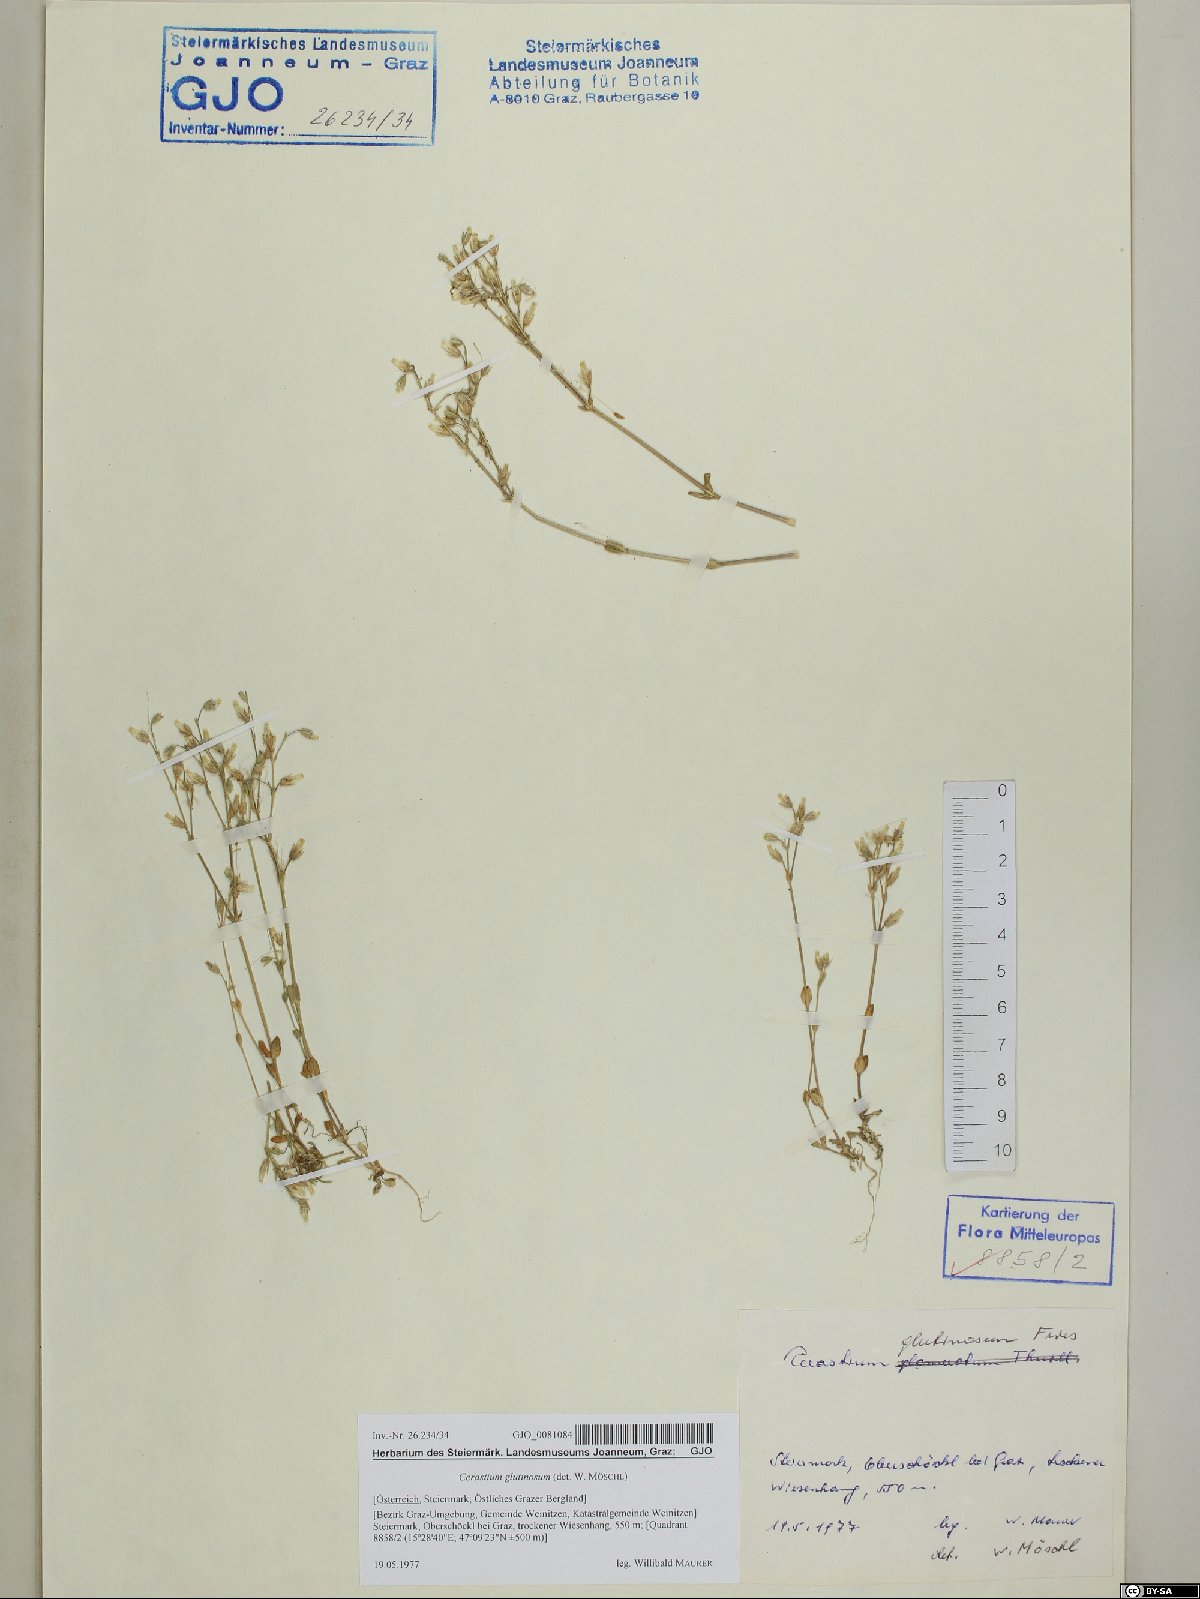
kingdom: Plantae
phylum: Tracheophyta
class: Magnoliopsida
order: Caryophyllales
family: Caryophyllaceae
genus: Cerastium
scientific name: Cerastium glutinosum
